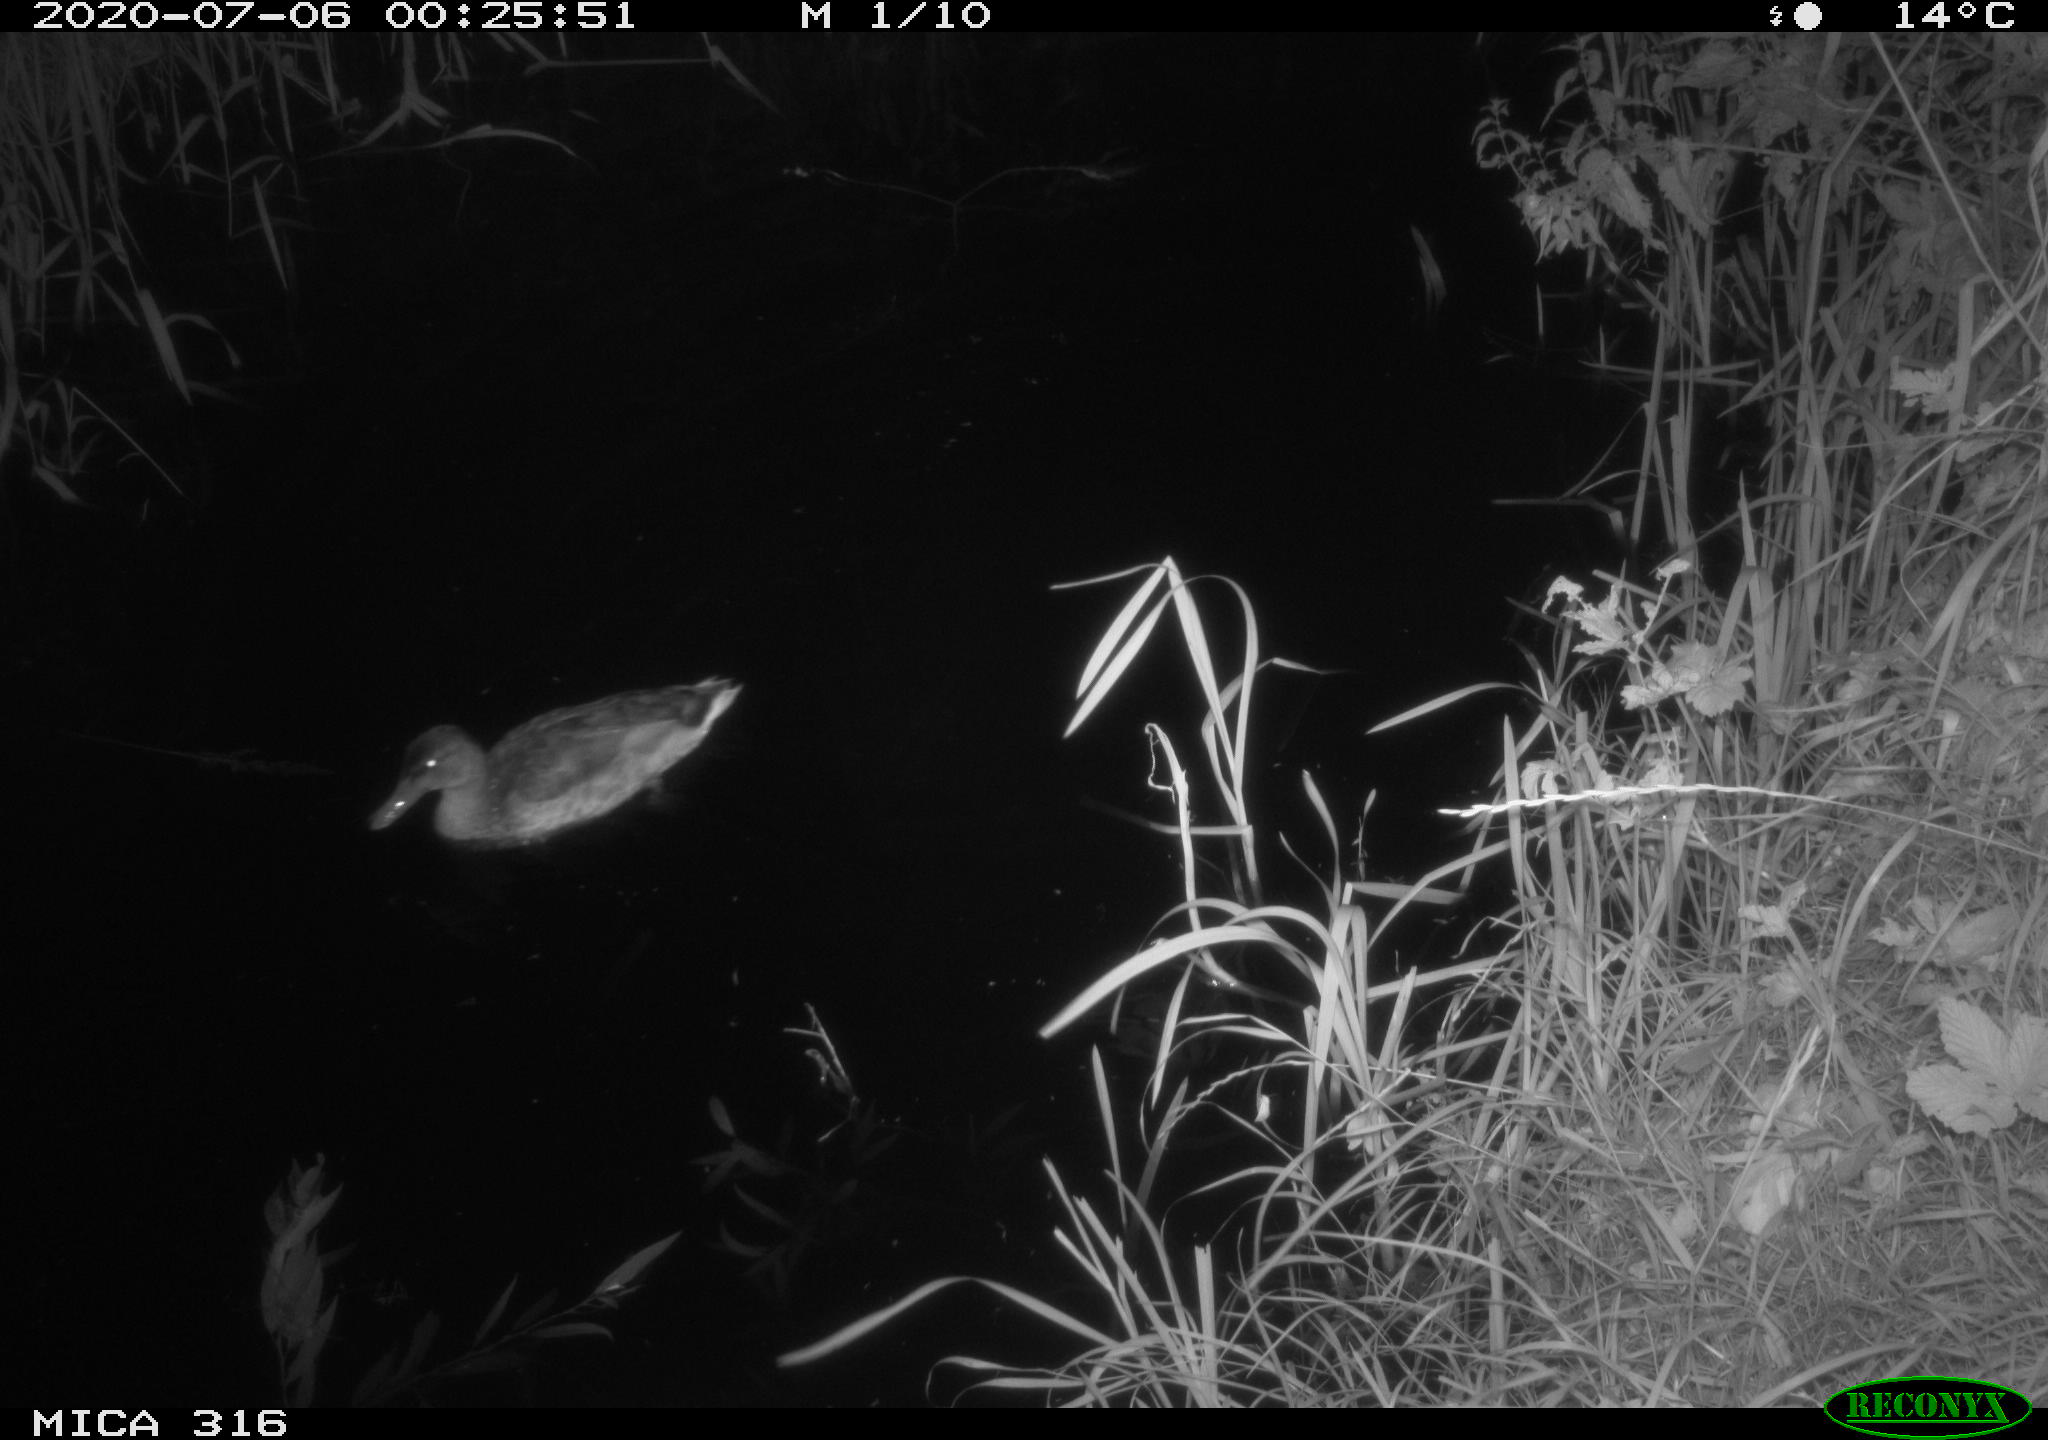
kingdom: Animalia
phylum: Chordata
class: Aves
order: Anseriformes
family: Anatidae
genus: Anas
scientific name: Anas platyrhynchos
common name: Mallard
